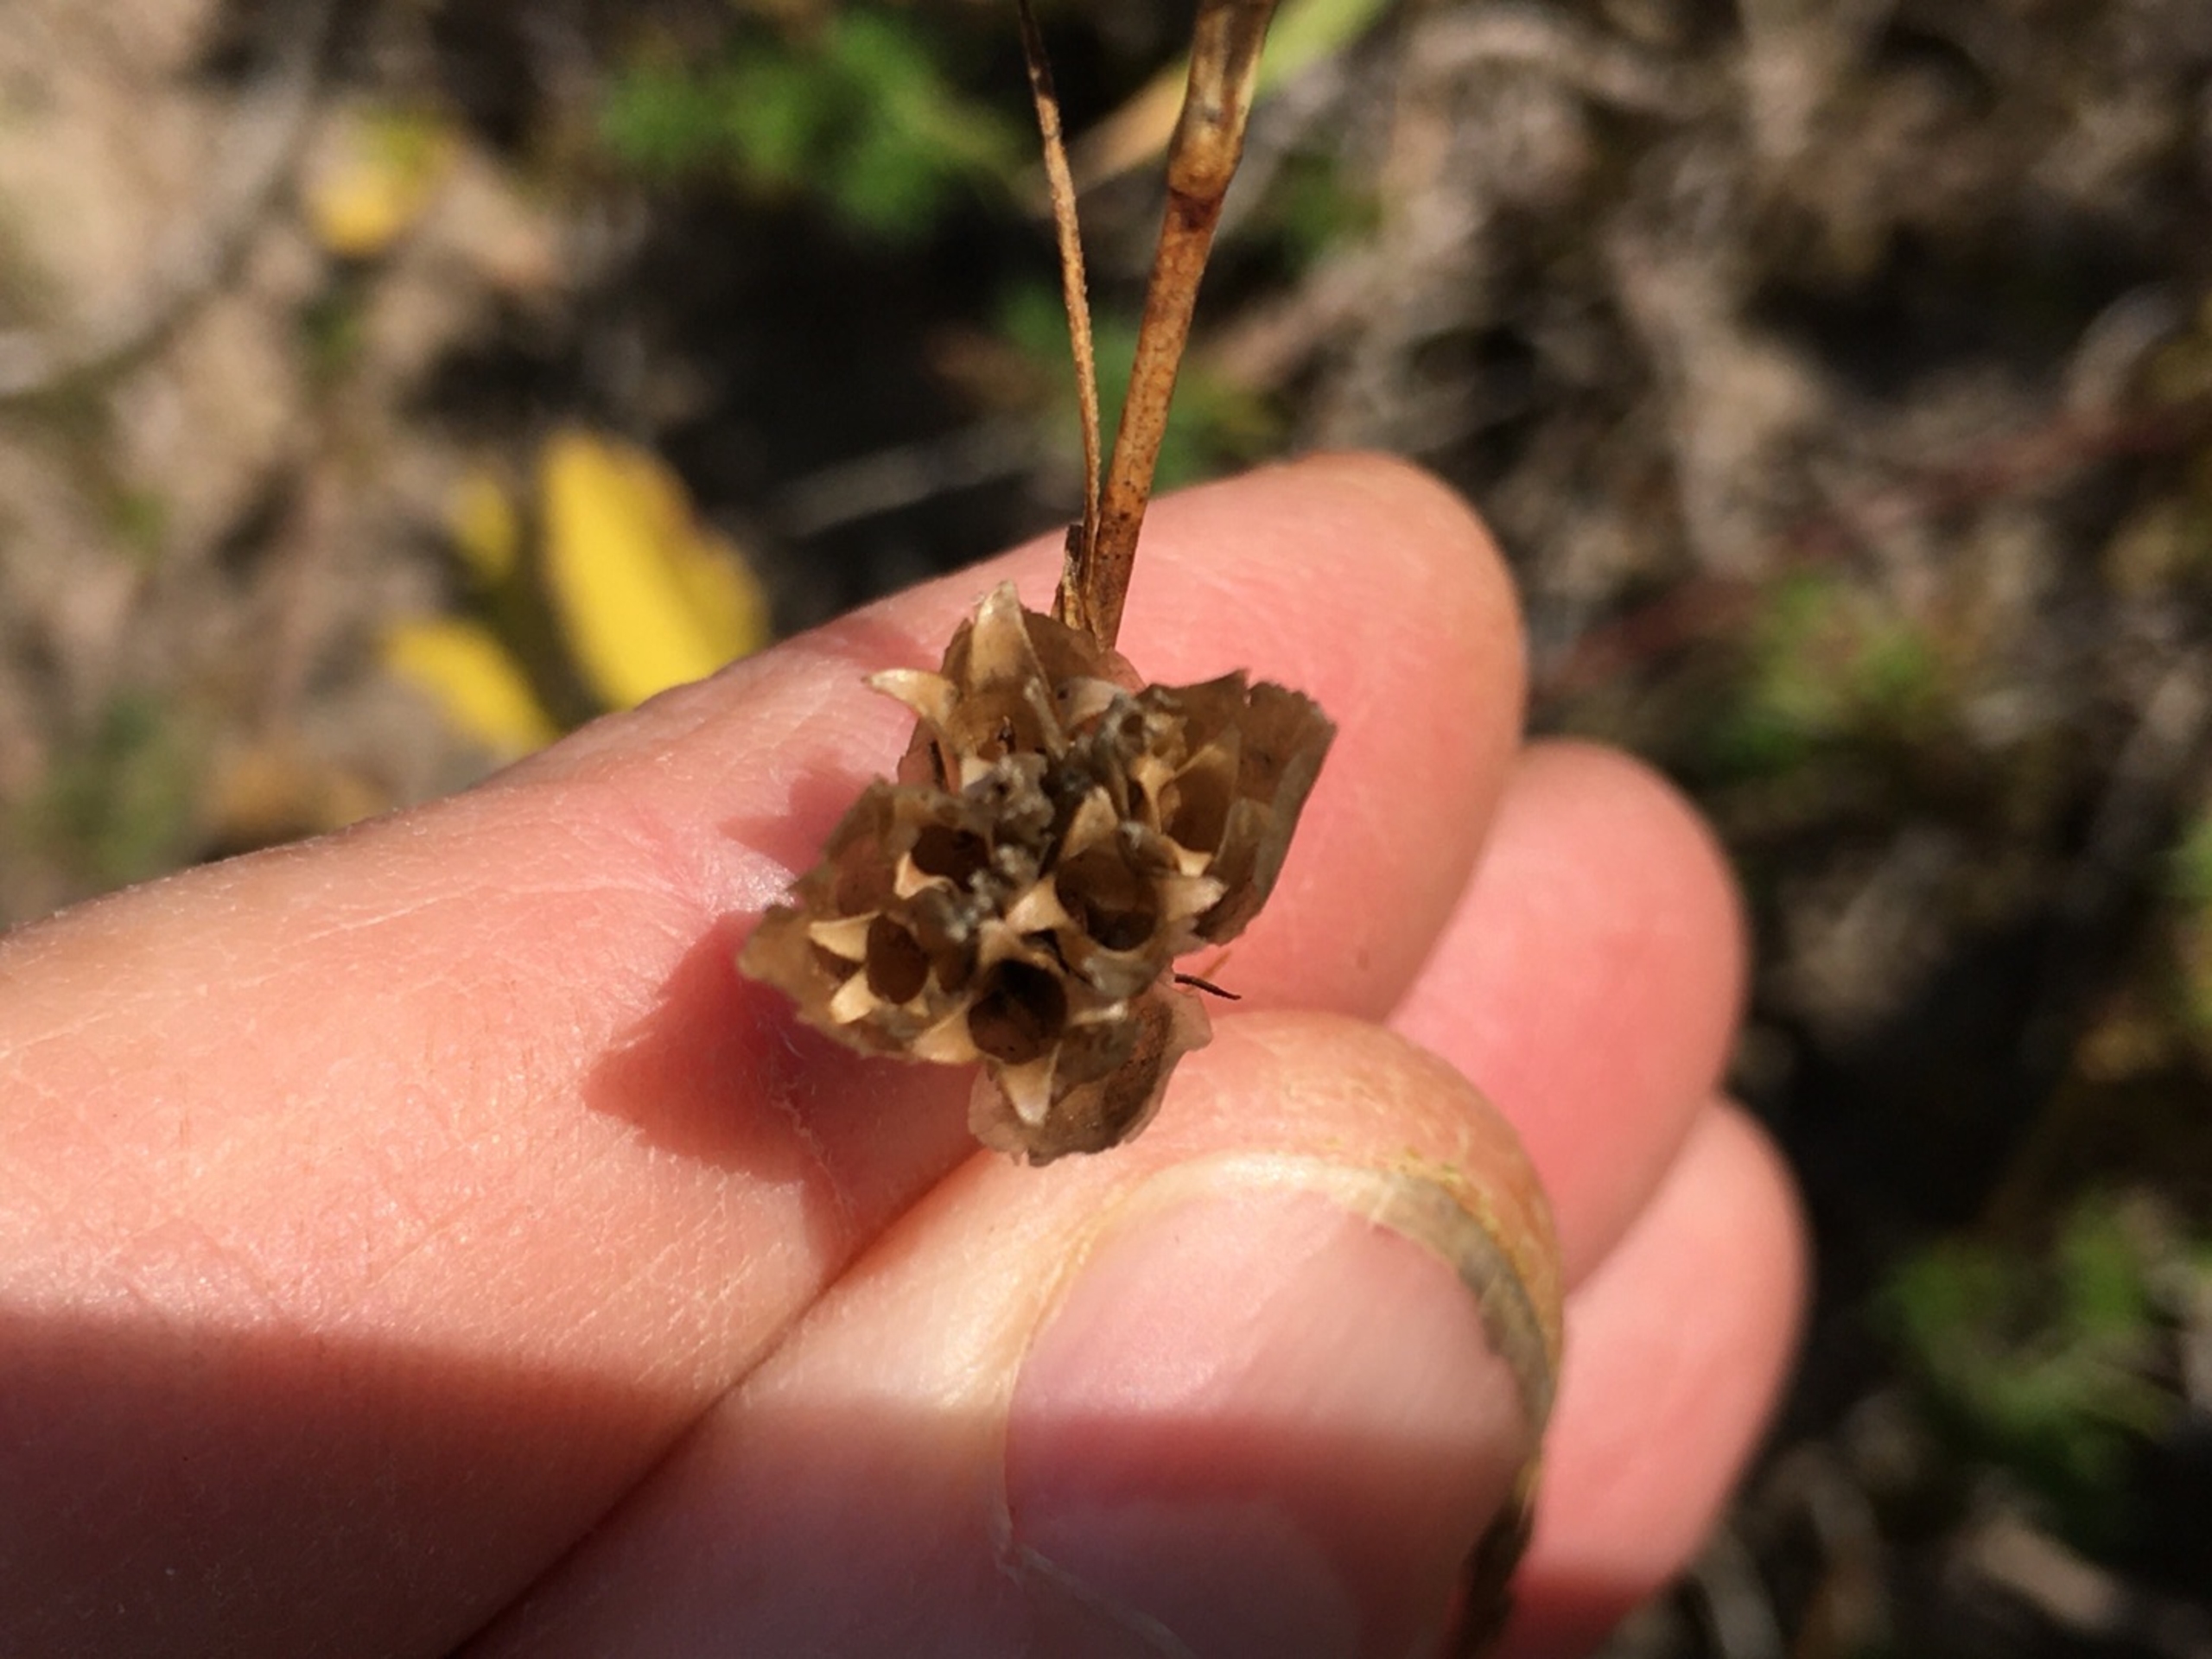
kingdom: Plantae
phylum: Tracheophyta
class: Magnoliopsida
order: Caryophyllales
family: Caryophyllaceae
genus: Petrorhagia
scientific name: Petrorhagia prolifera
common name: Knopnellike
